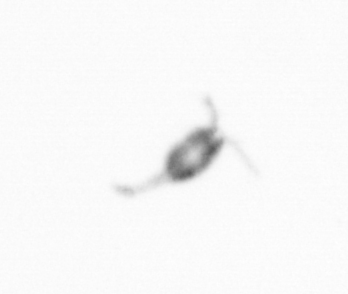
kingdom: Animalia
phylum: Arthropoda
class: Copepoda
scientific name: Copepoda
